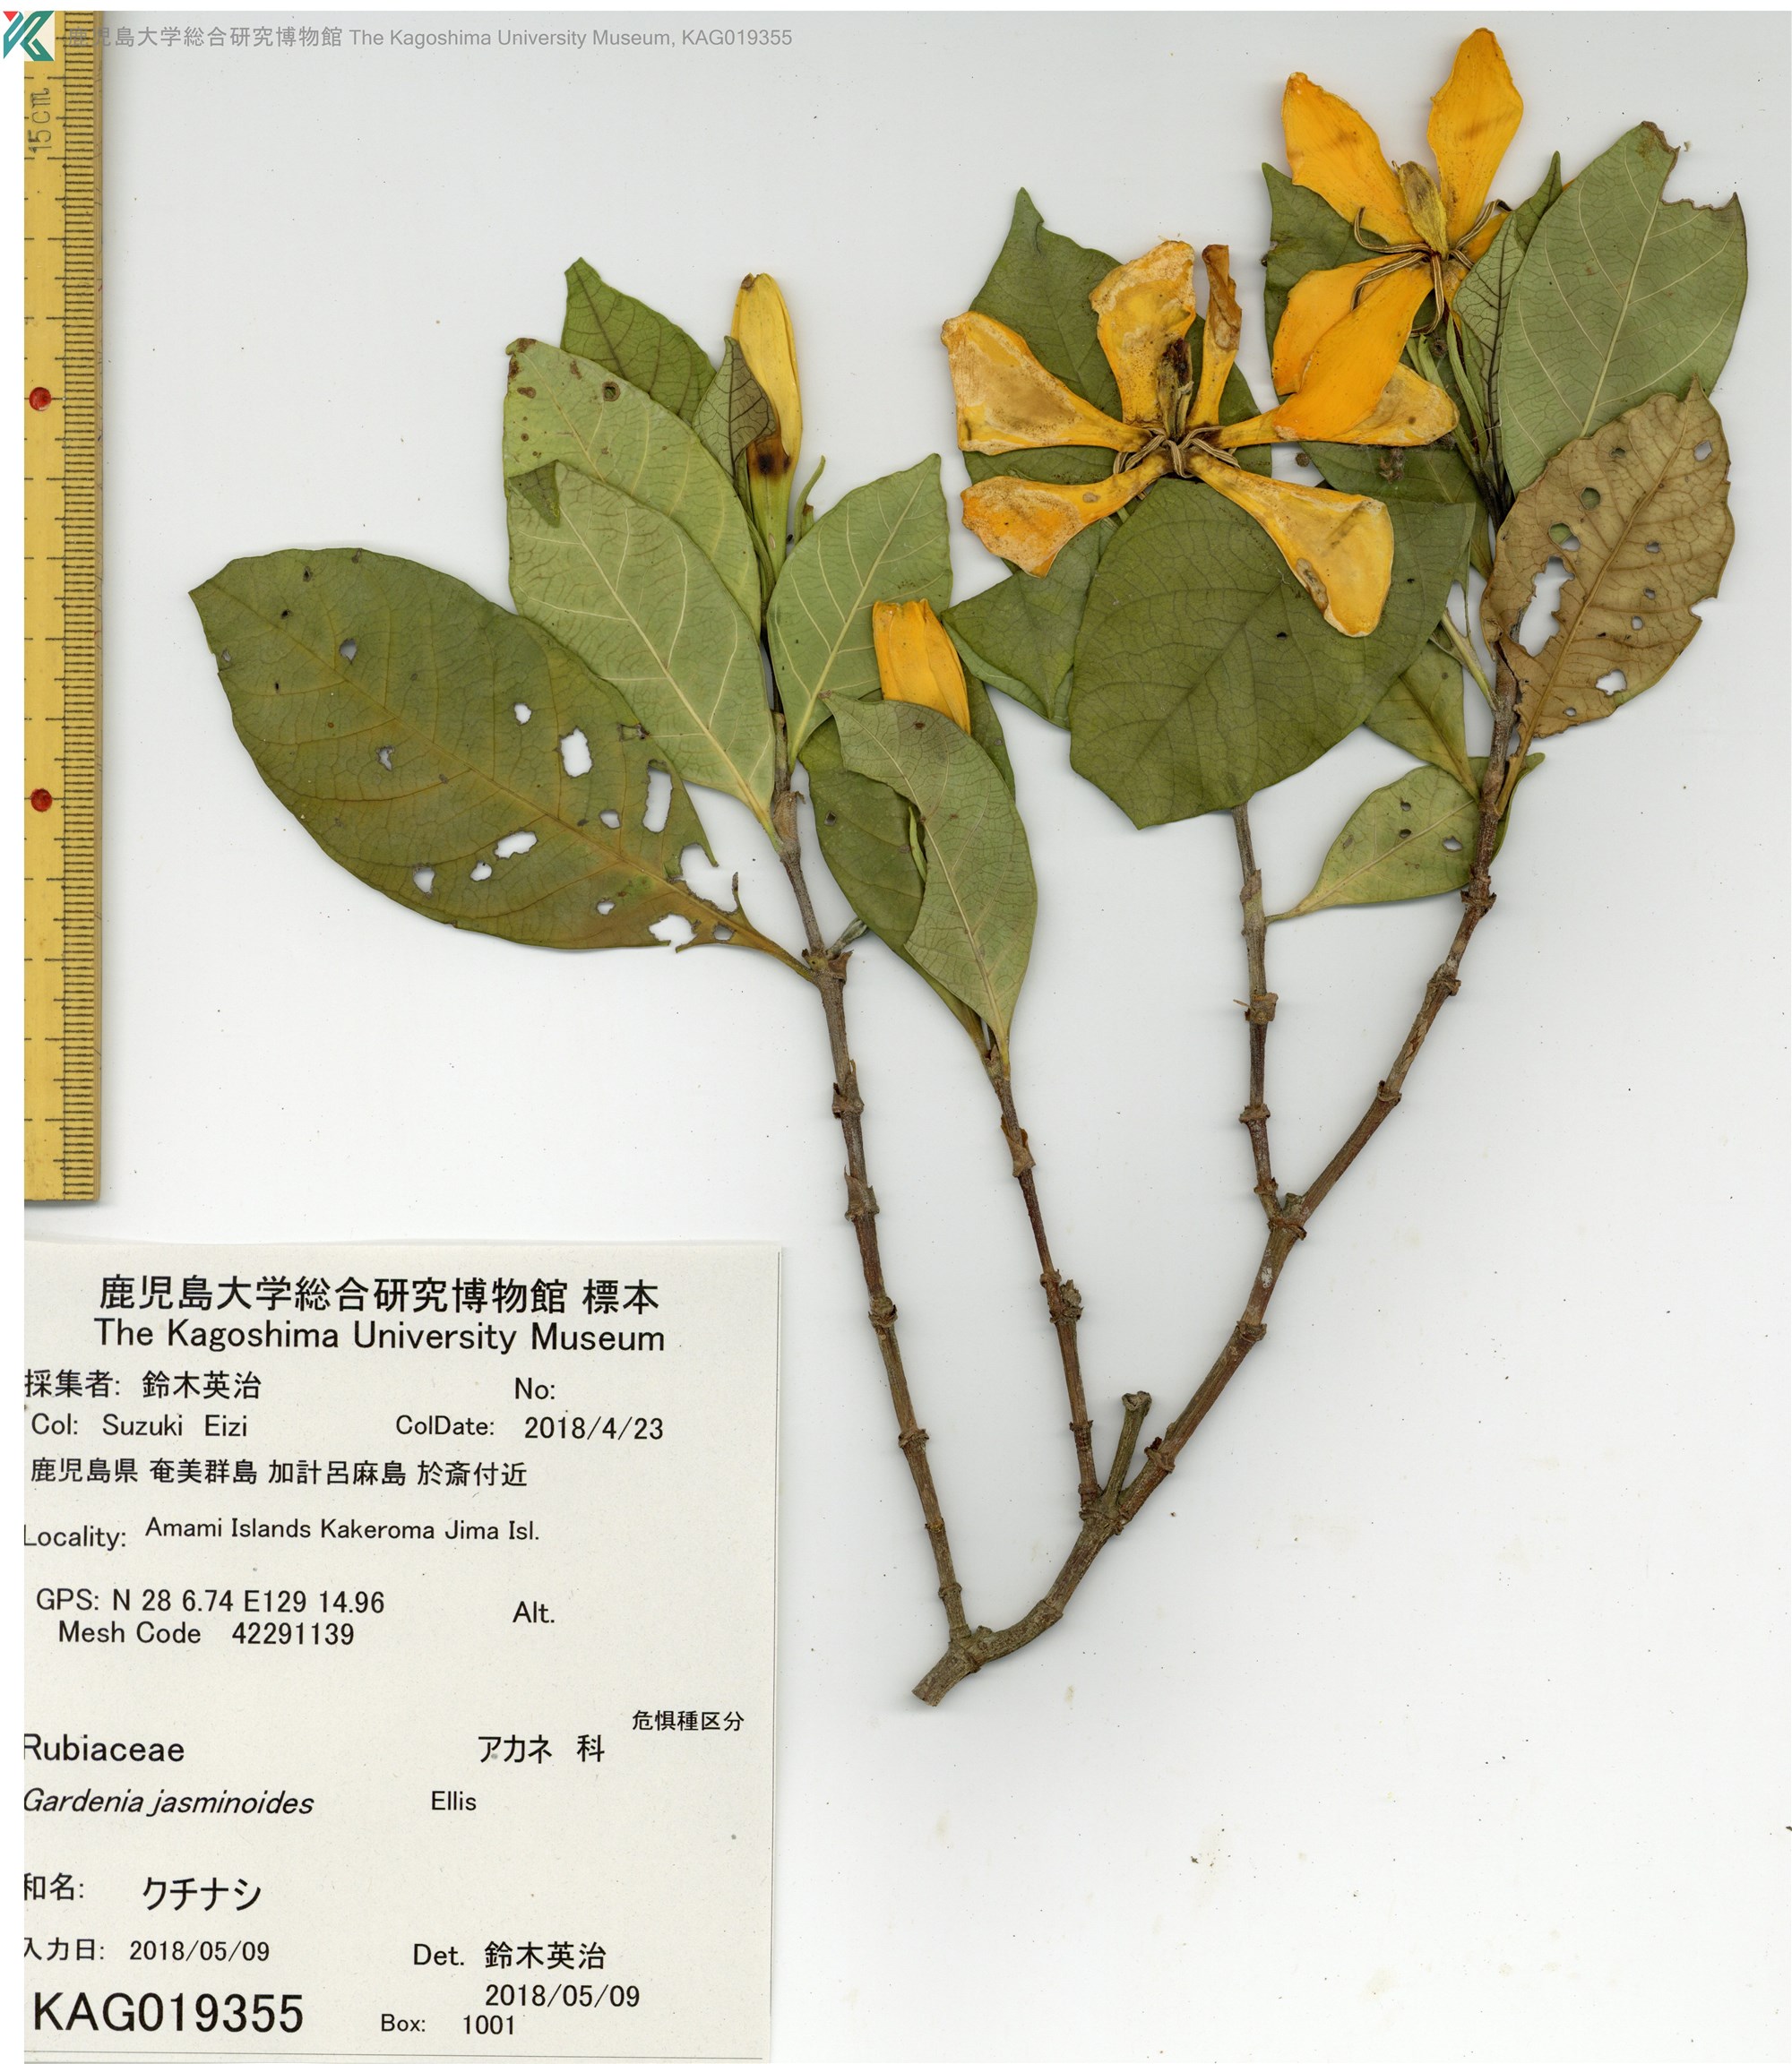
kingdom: Plantae
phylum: Tracheophyta
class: Magnoliopsida
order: Gentianales
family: Rubiaceae
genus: Gardenia
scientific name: Gardenia jasminoides
